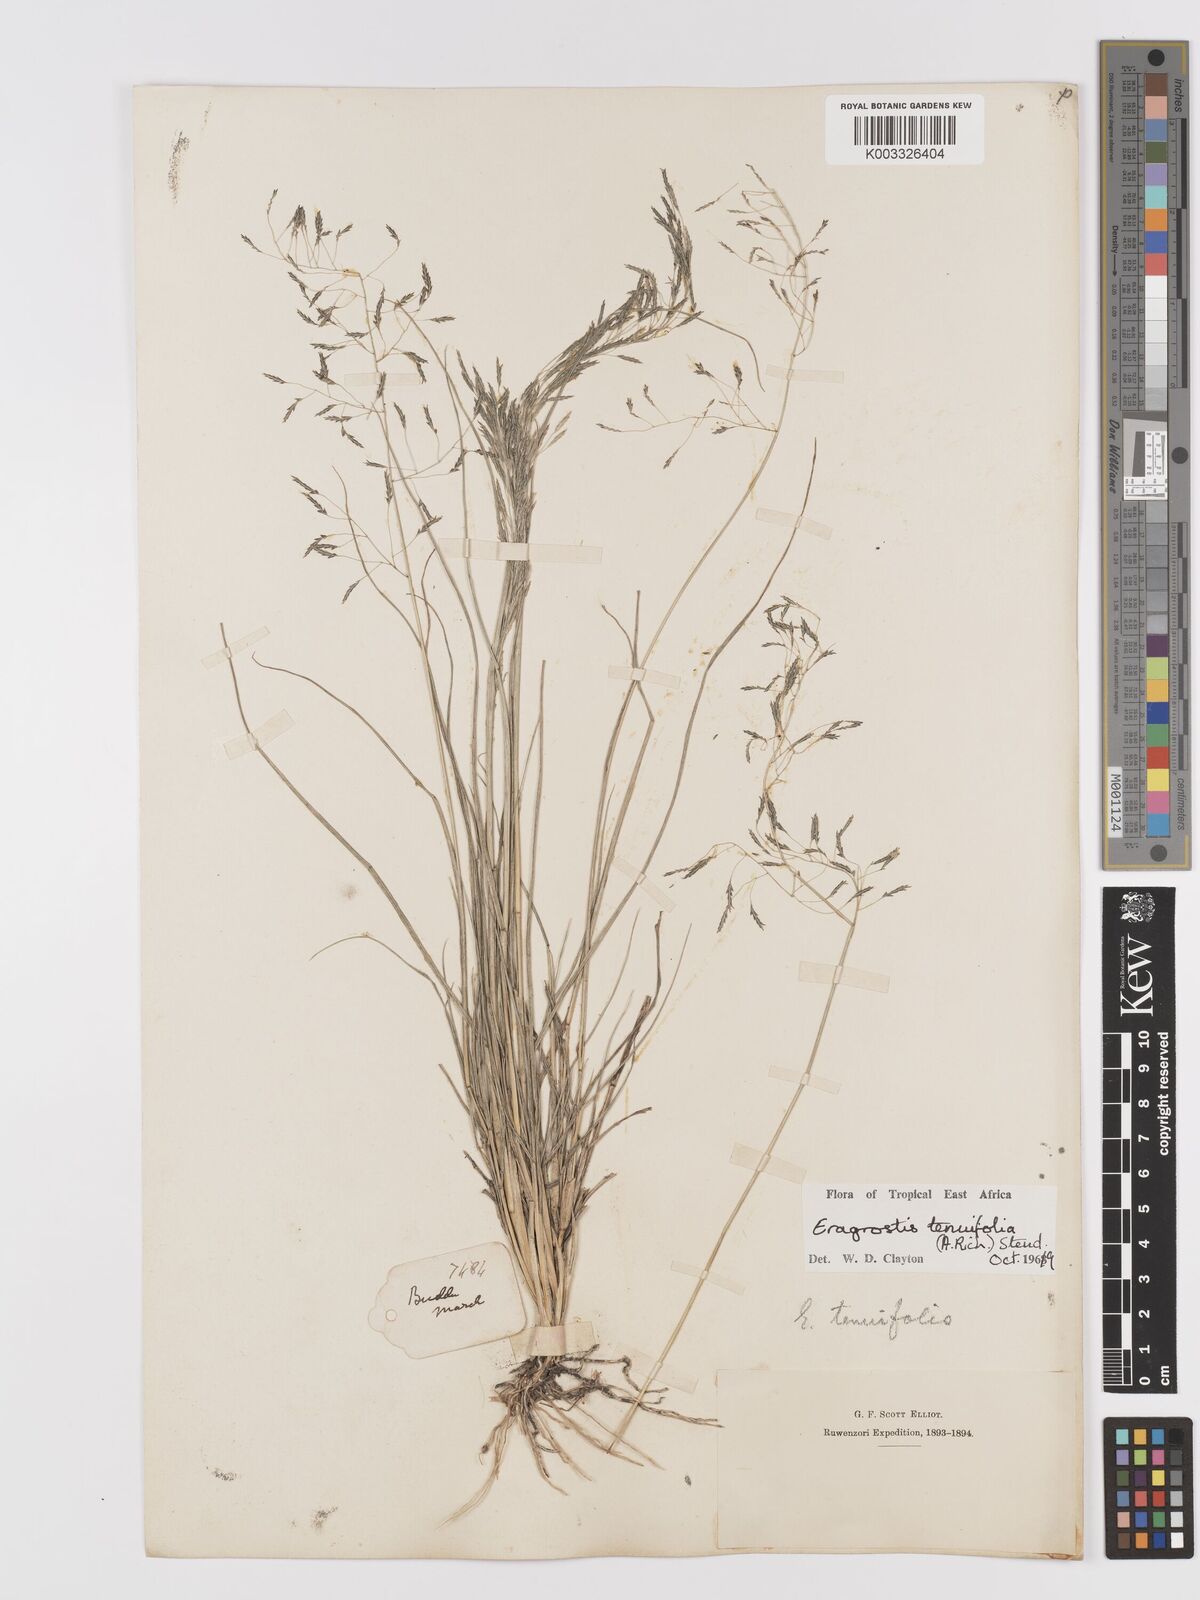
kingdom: Plantae
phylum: Tracheophyta
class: Liliopsida
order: Poales
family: Poaceae
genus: Eragrostis
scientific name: Eragrostis tenuifolia
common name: Elastic grass
